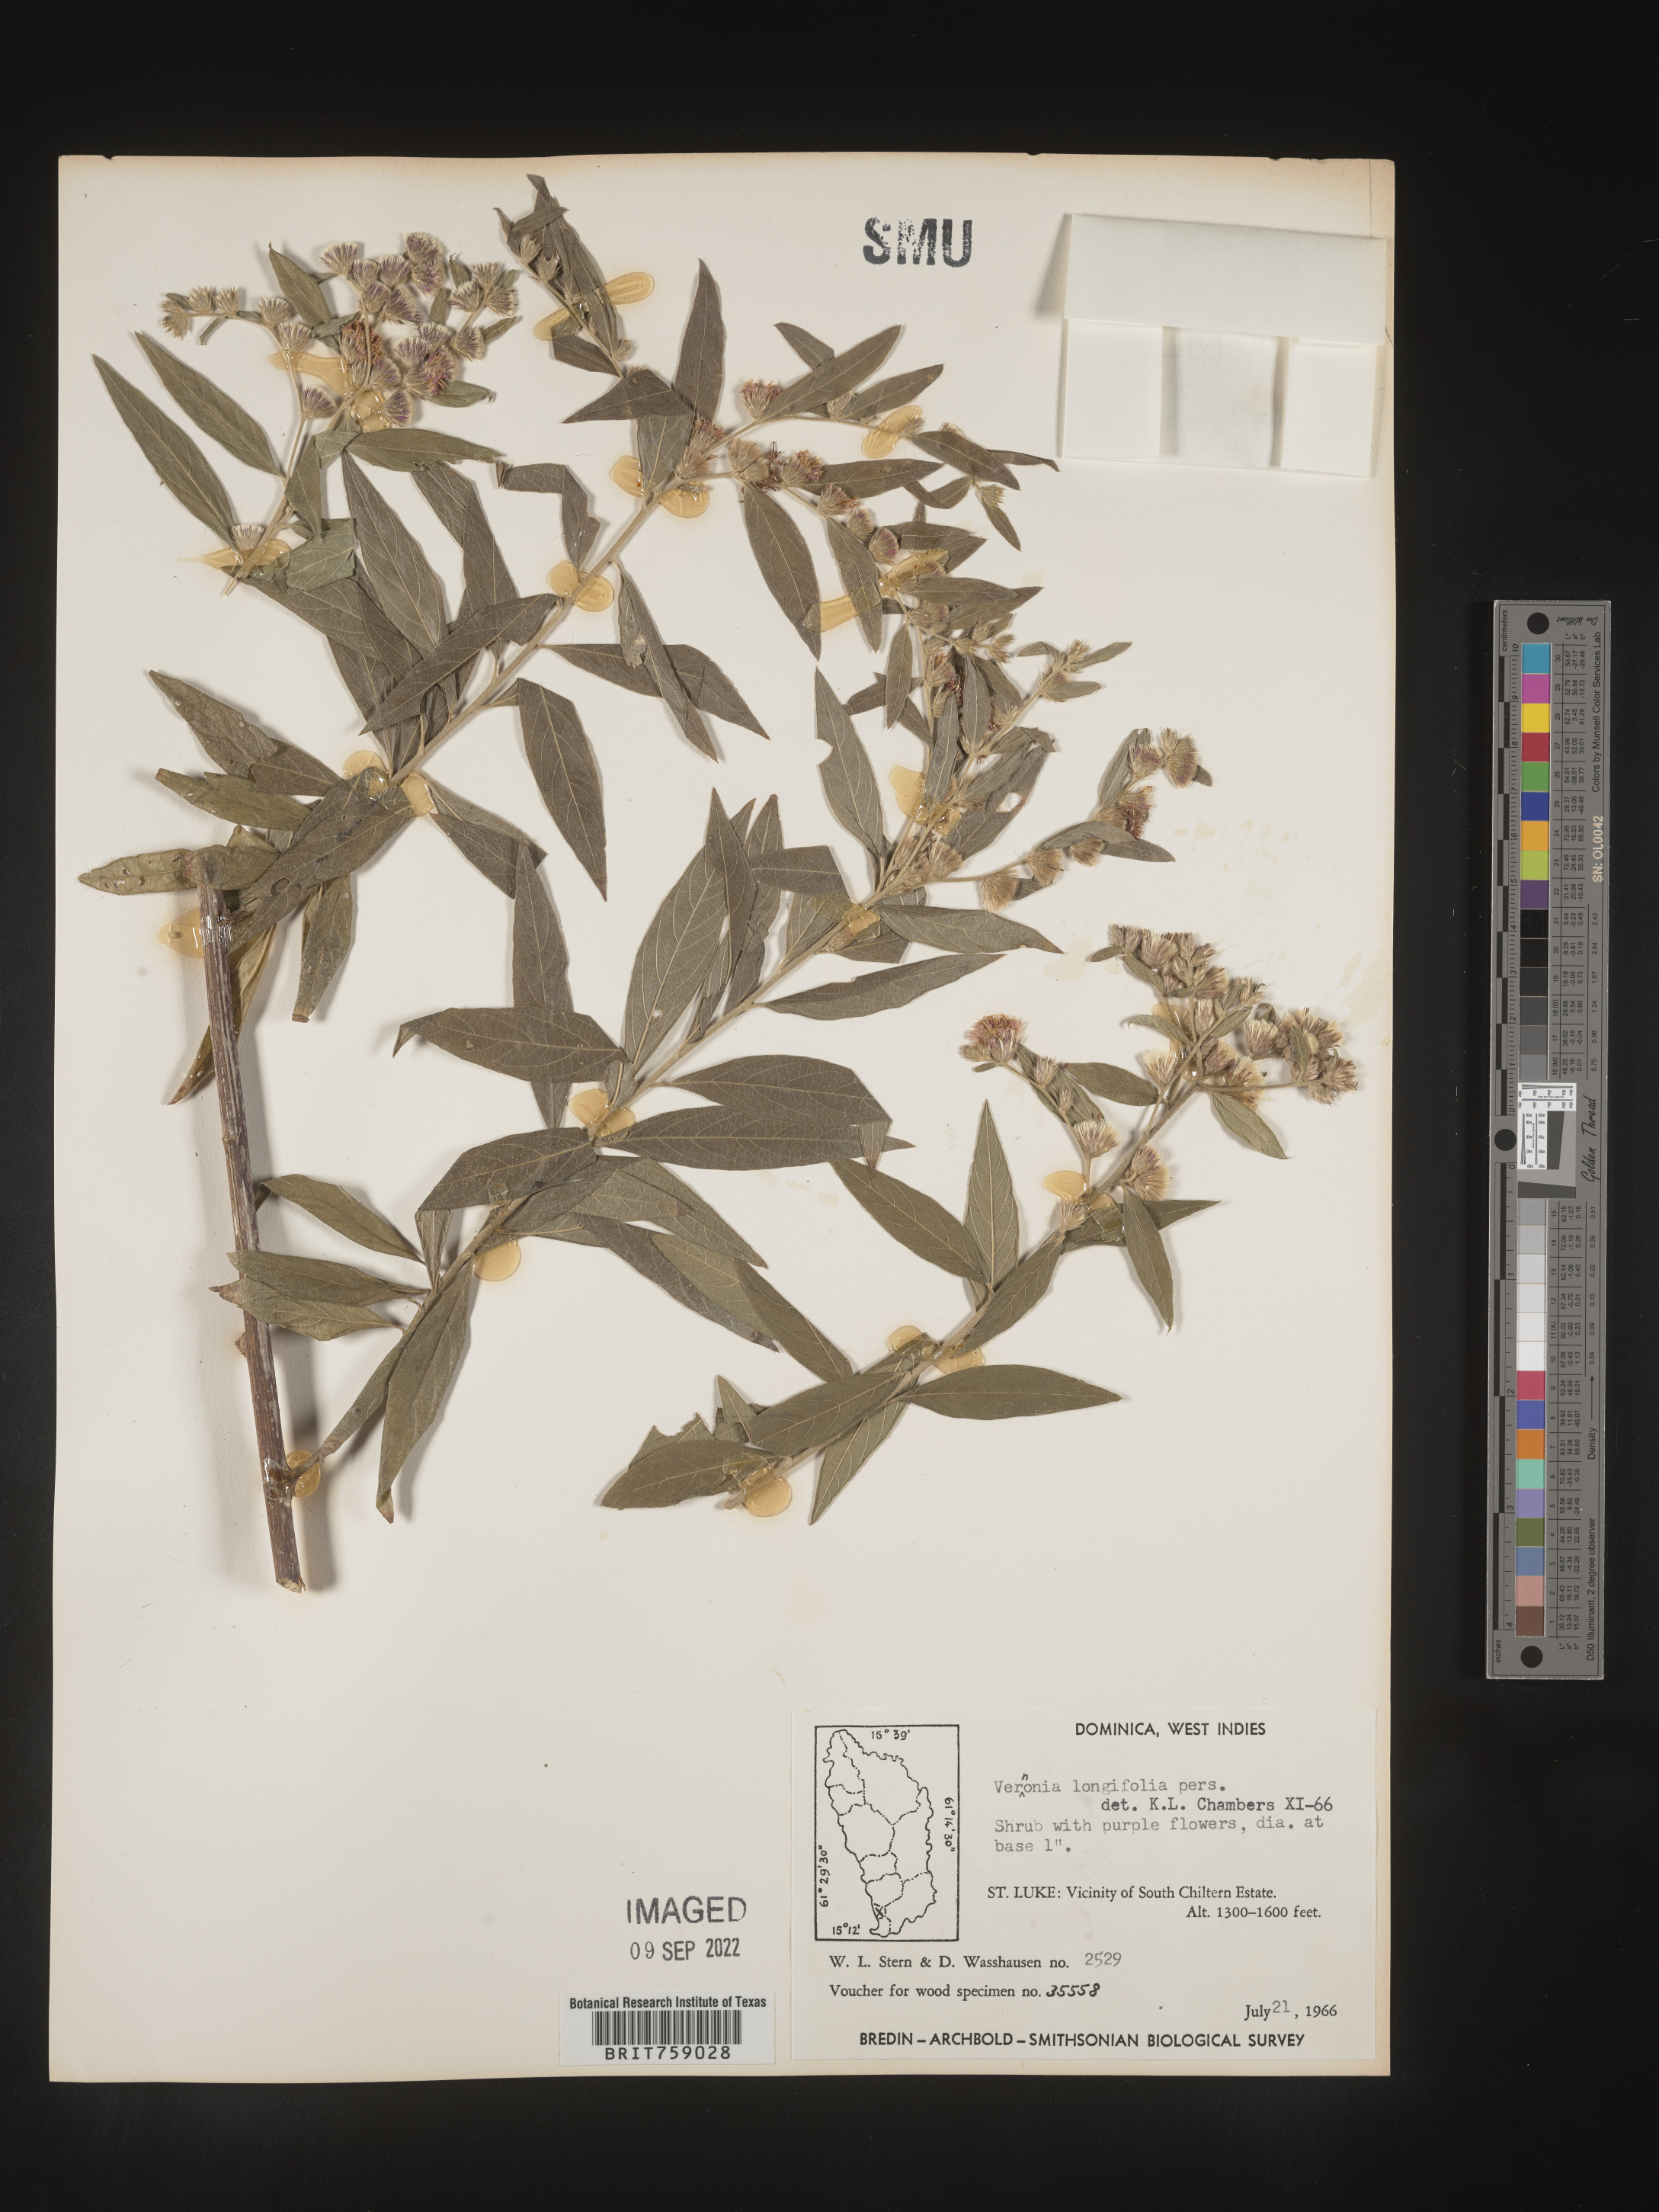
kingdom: Plantae
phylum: Tracheophyta
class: Magnoliopsida
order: Asterales
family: Asteraceae
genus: Vernonia
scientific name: Vernonia
